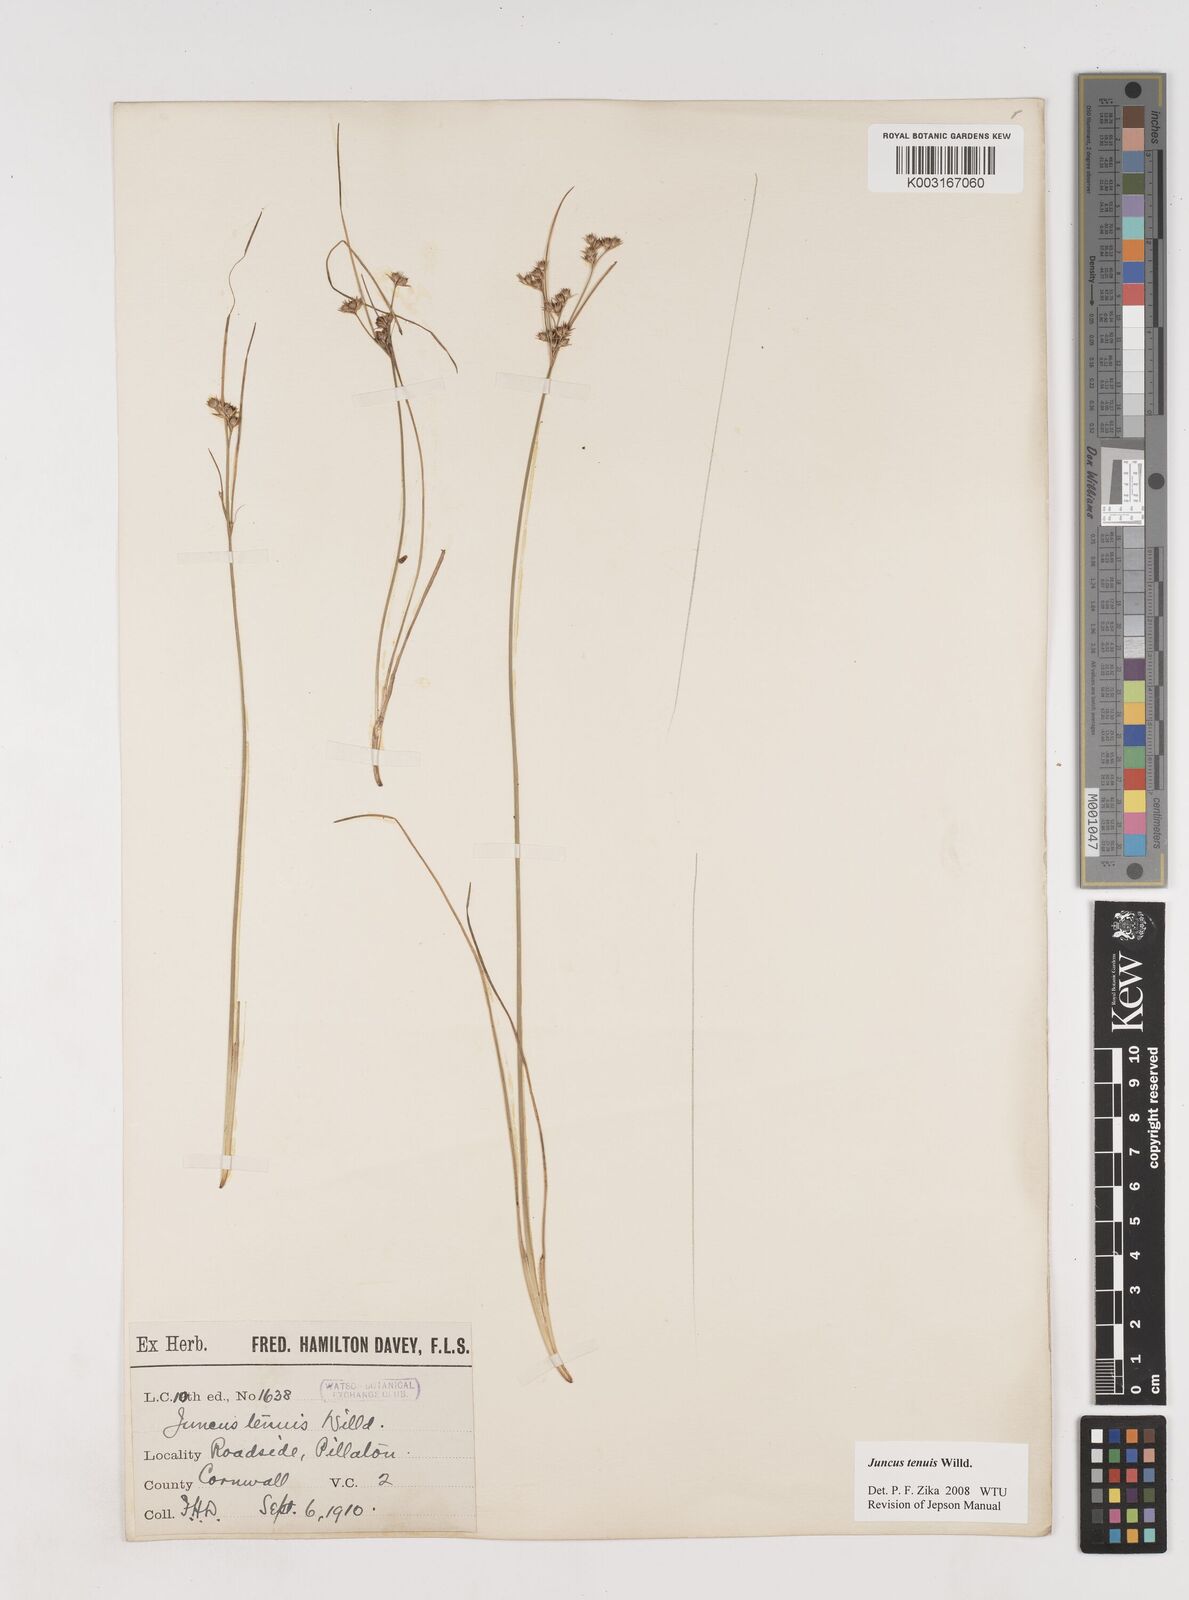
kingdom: Plantae
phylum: Tracheophyta
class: Liliopsida
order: Poales
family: Juncaceae
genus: Juncus
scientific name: Juncus tenuis
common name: Slender rush
